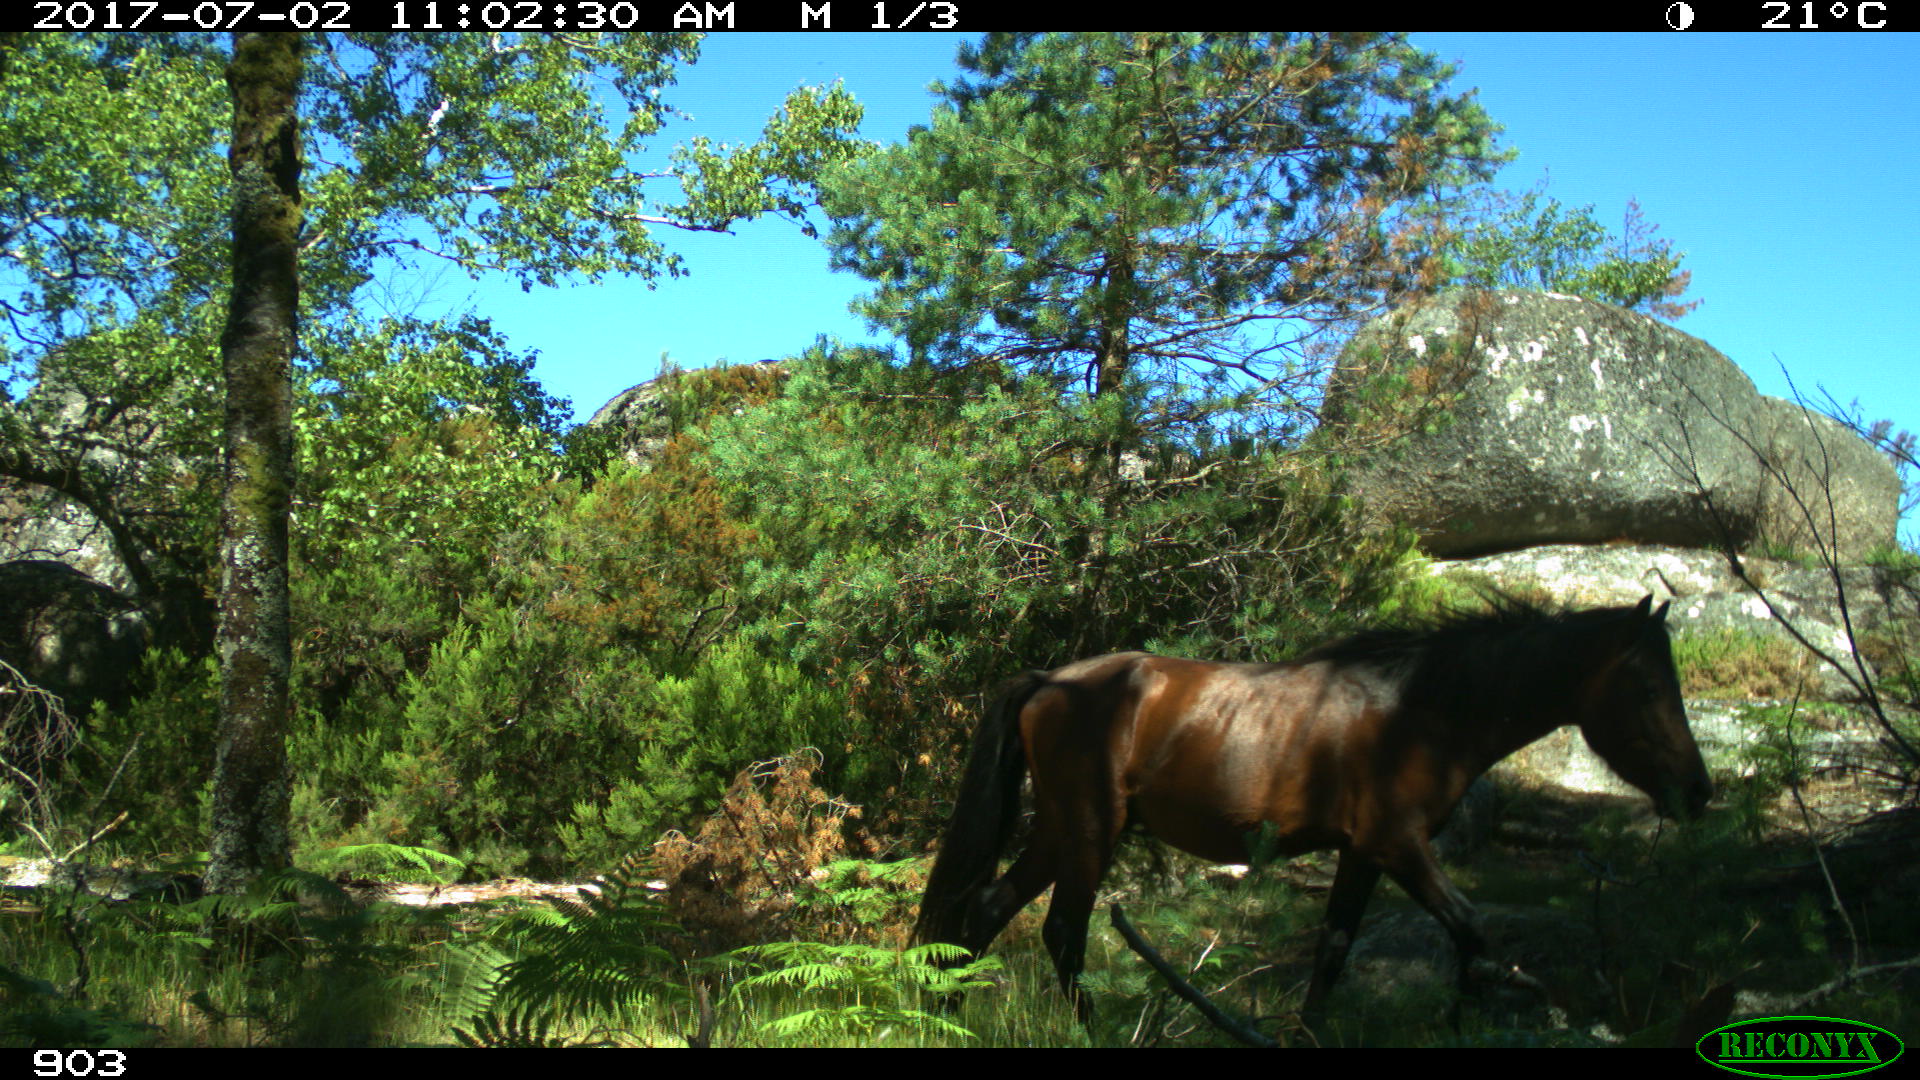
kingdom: Animalia
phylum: Chordata
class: Mammalia
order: Perissodactyla
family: Equidae
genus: Equus
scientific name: Equus caballus
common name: Horse
